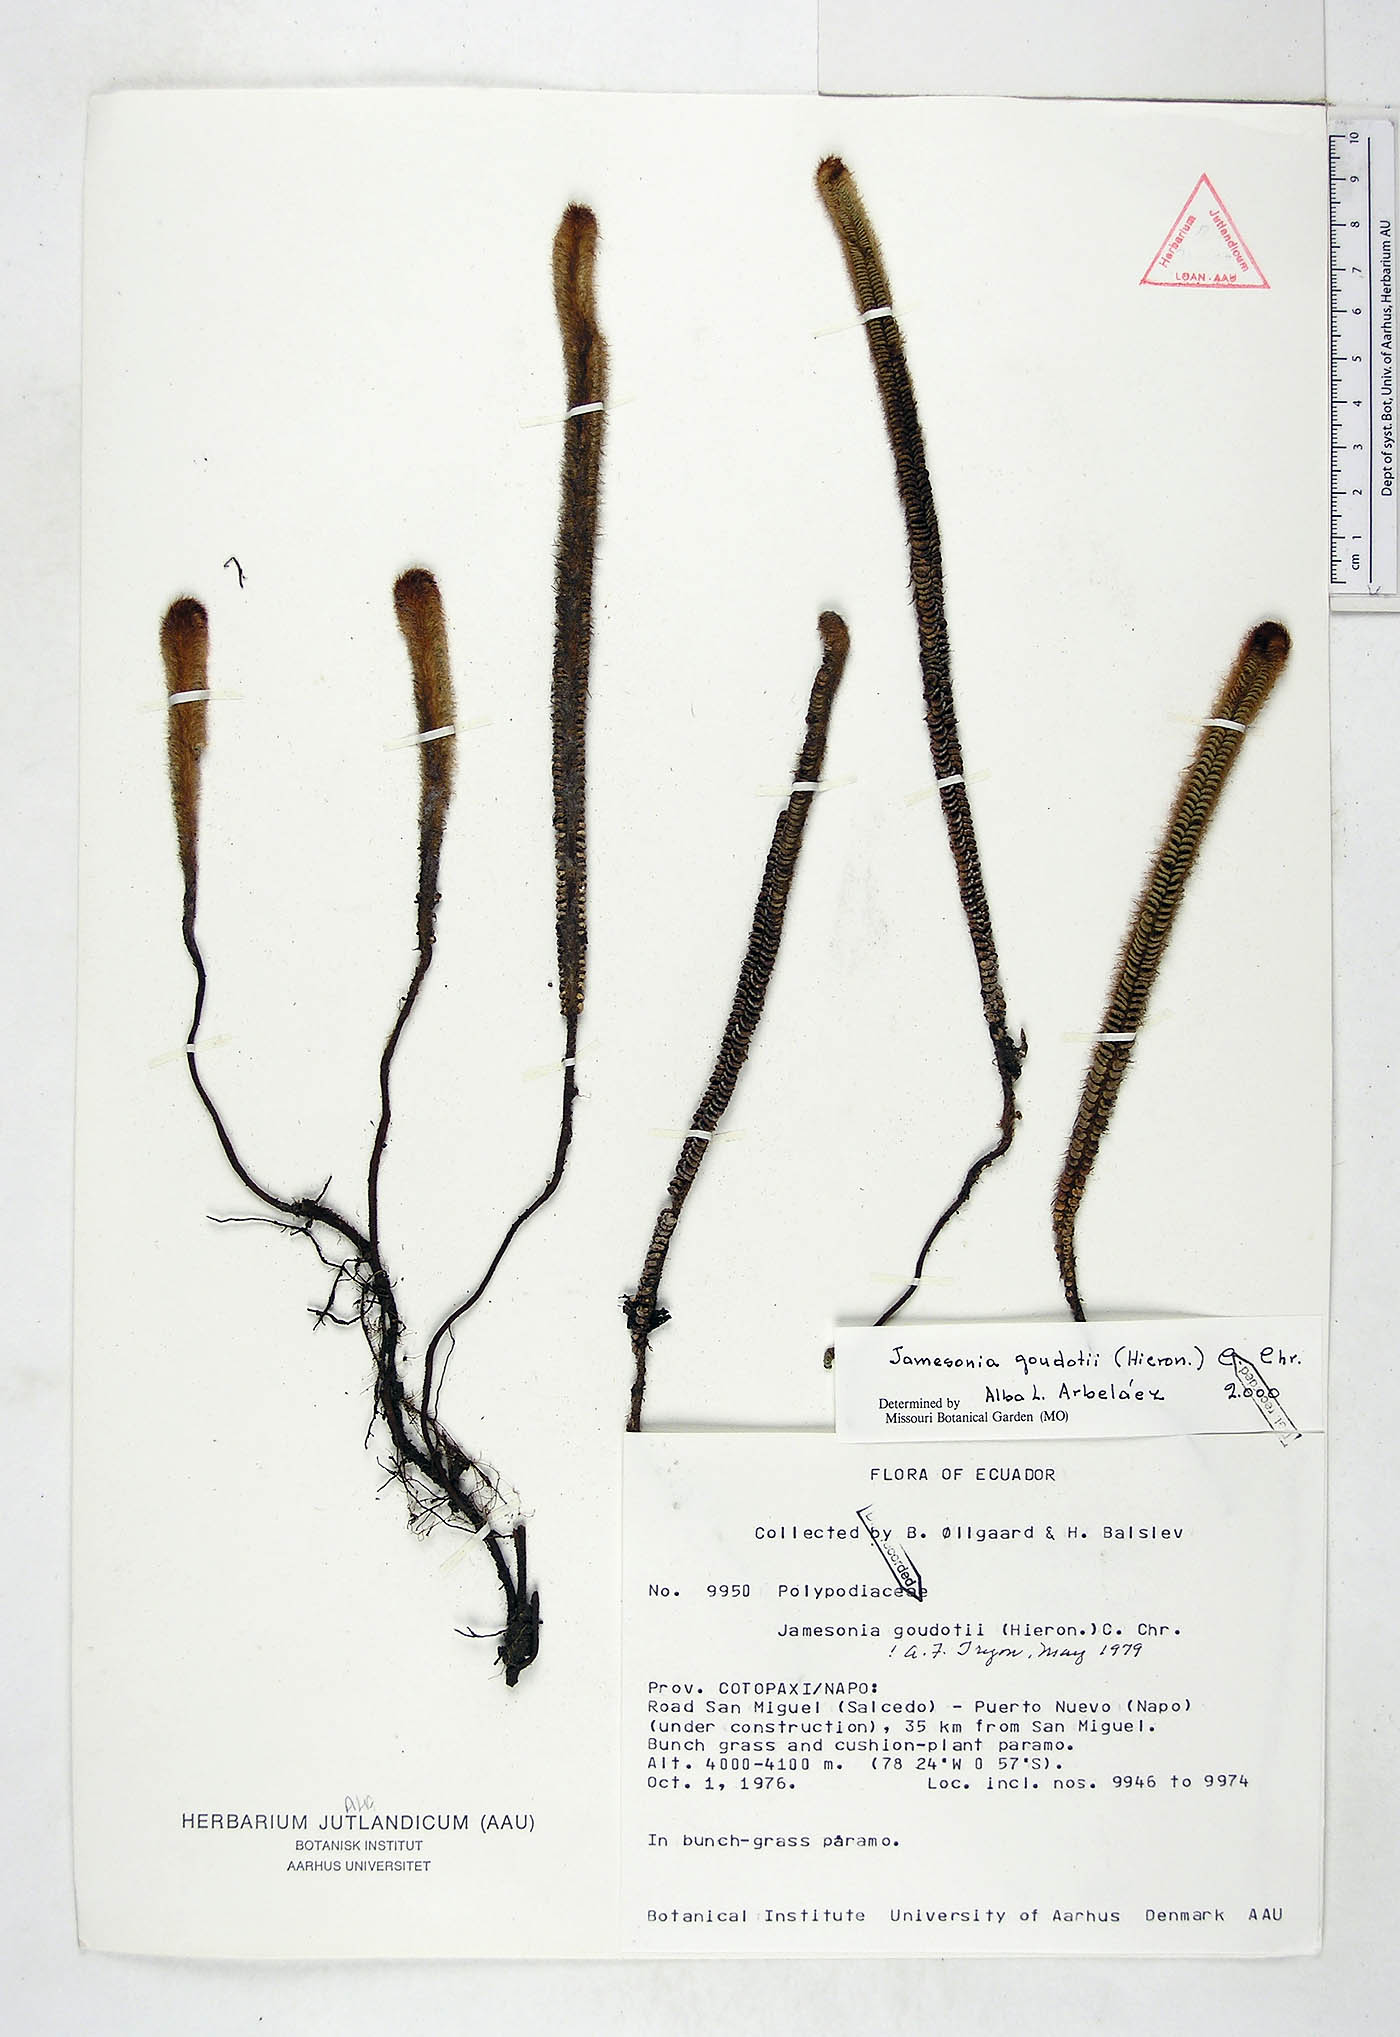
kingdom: Plantae
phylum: Tracheophyta
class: Polypodiopsida
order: Polypodiales
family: Pteridaceae
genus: Jamesonia
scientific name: Jamesonia goudotii
